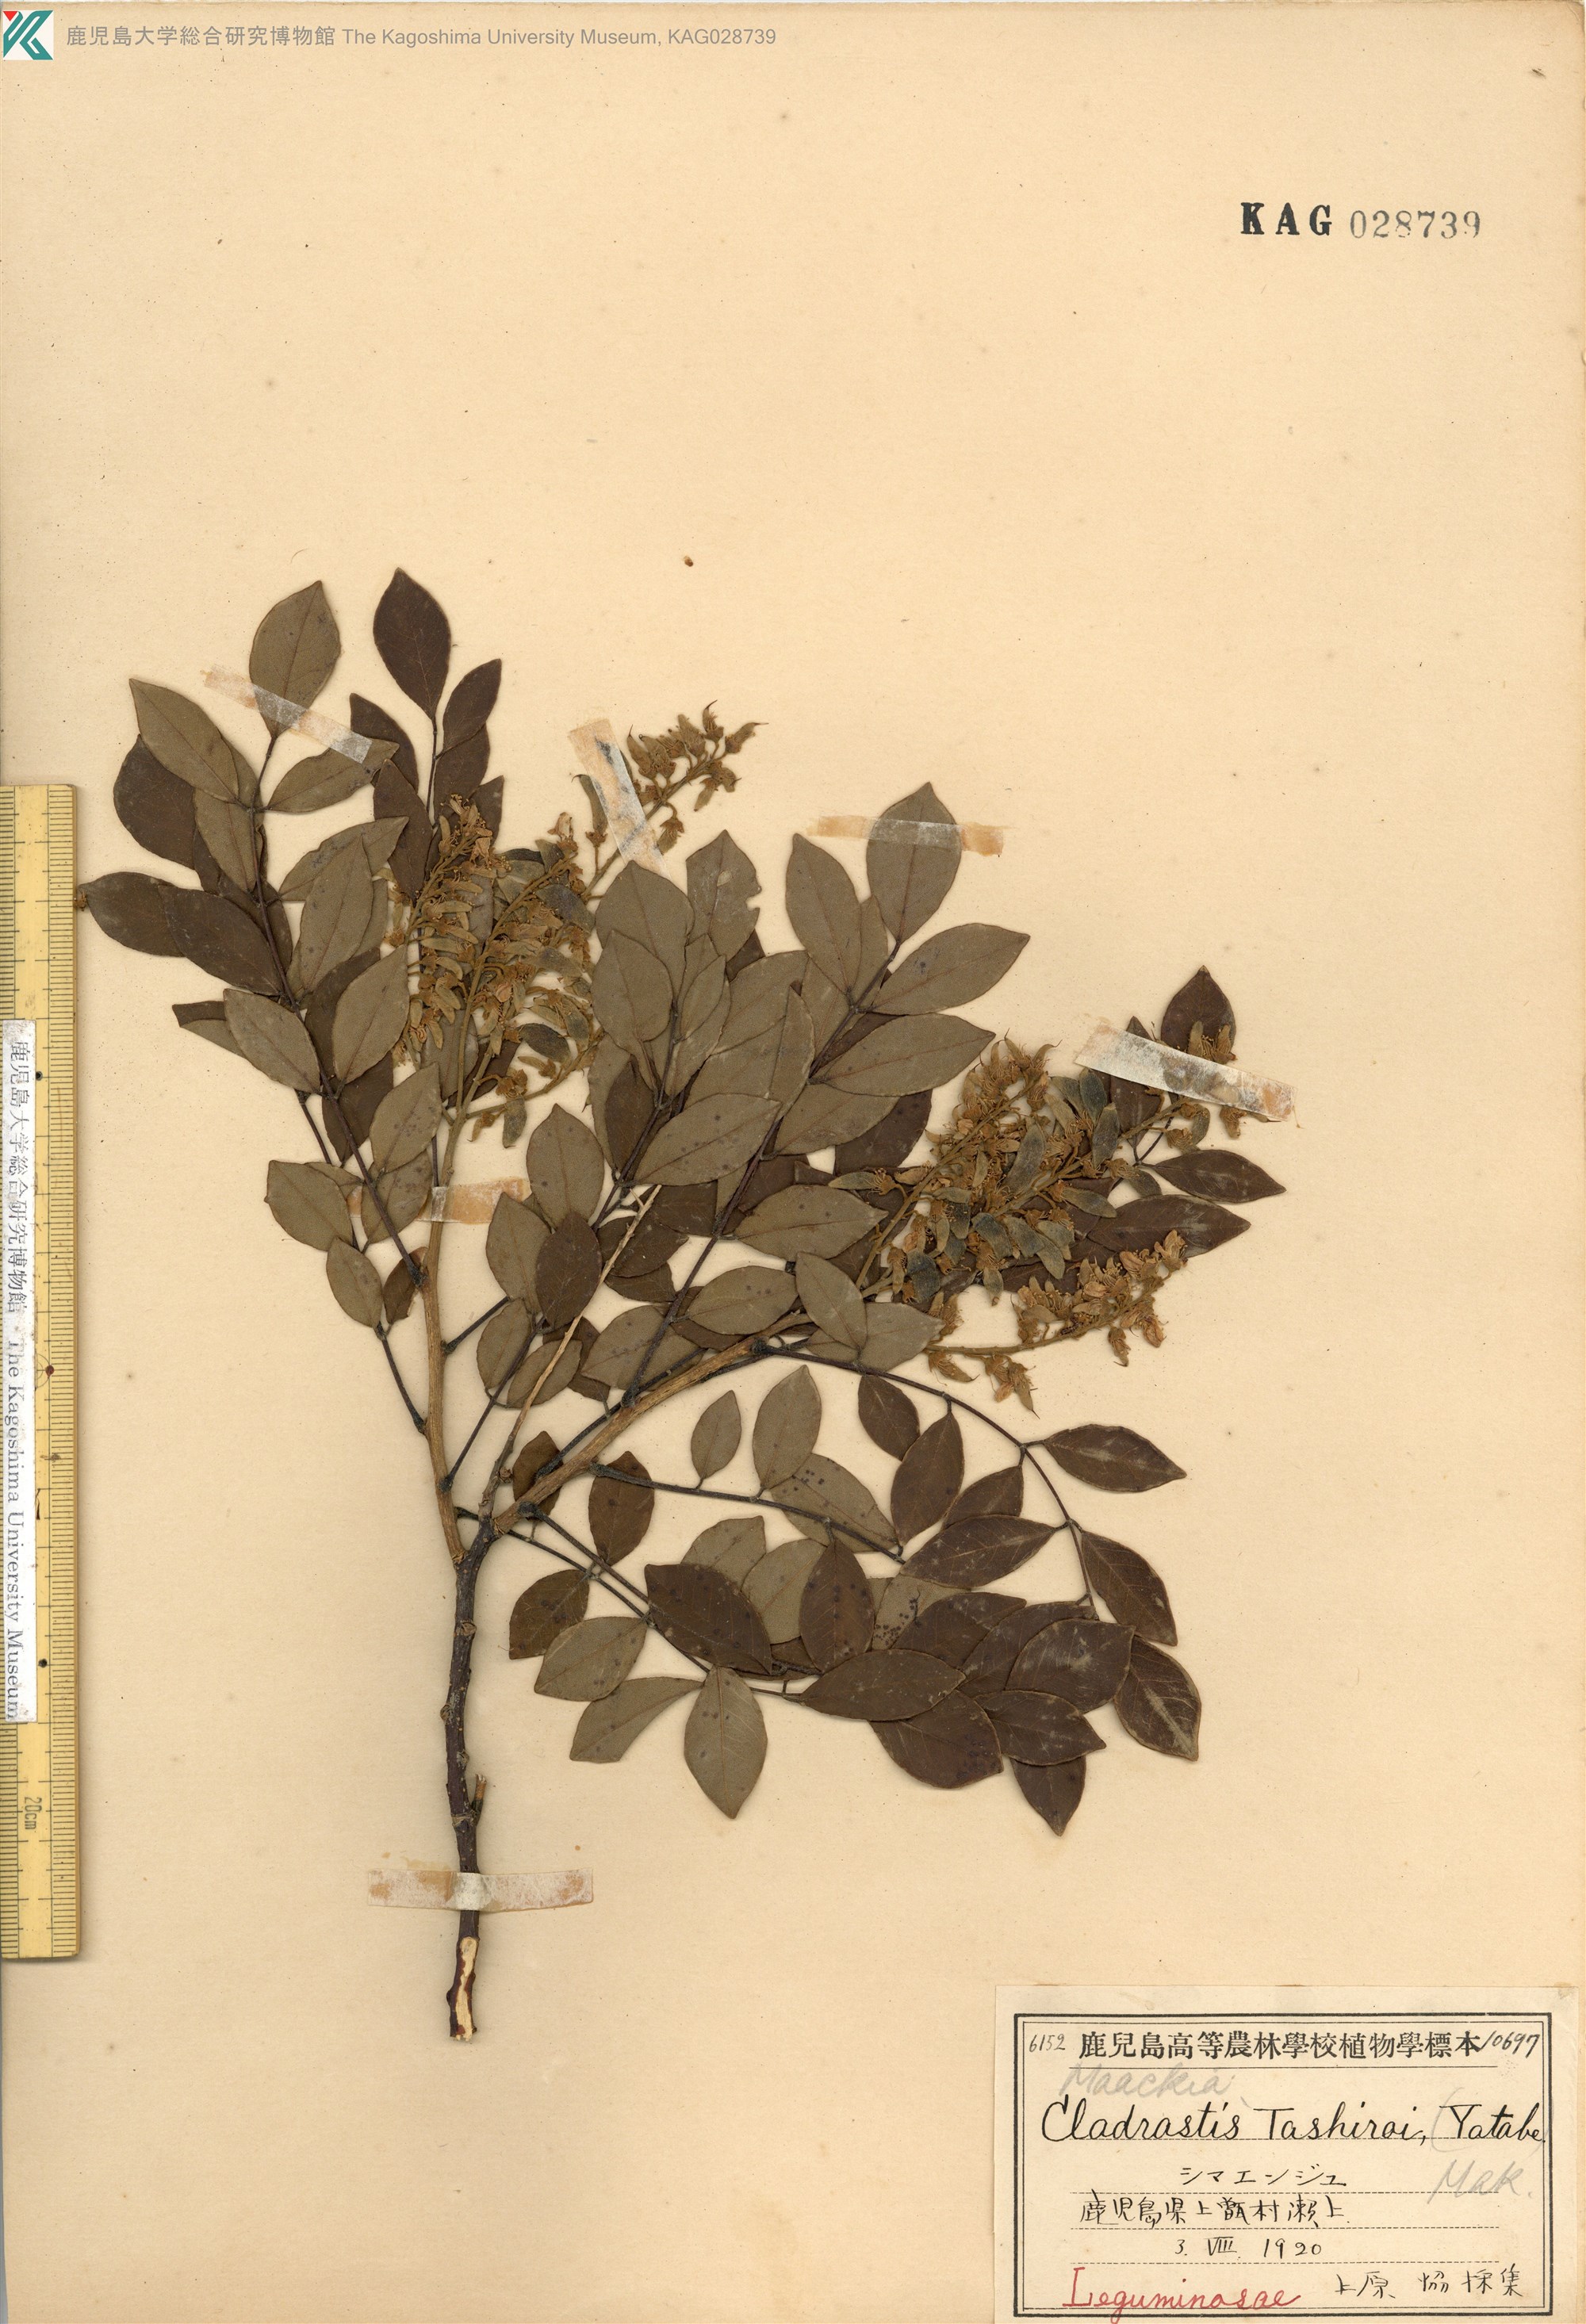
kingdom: Plantae
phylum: Tracheophyta
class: Magnoliopsida
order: Fabales
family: Fabaceae
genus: Maackia
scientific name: Maackia tashiroi
